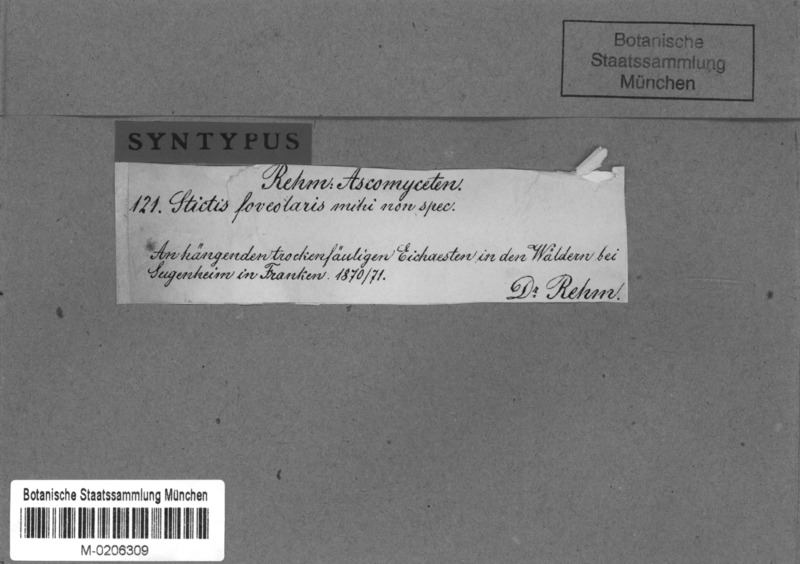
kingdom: Plantae
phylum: Tracheophyta
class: Magnoliopsida
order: Fagales
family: Fagaceae
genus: Quercus
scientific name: Quercus
